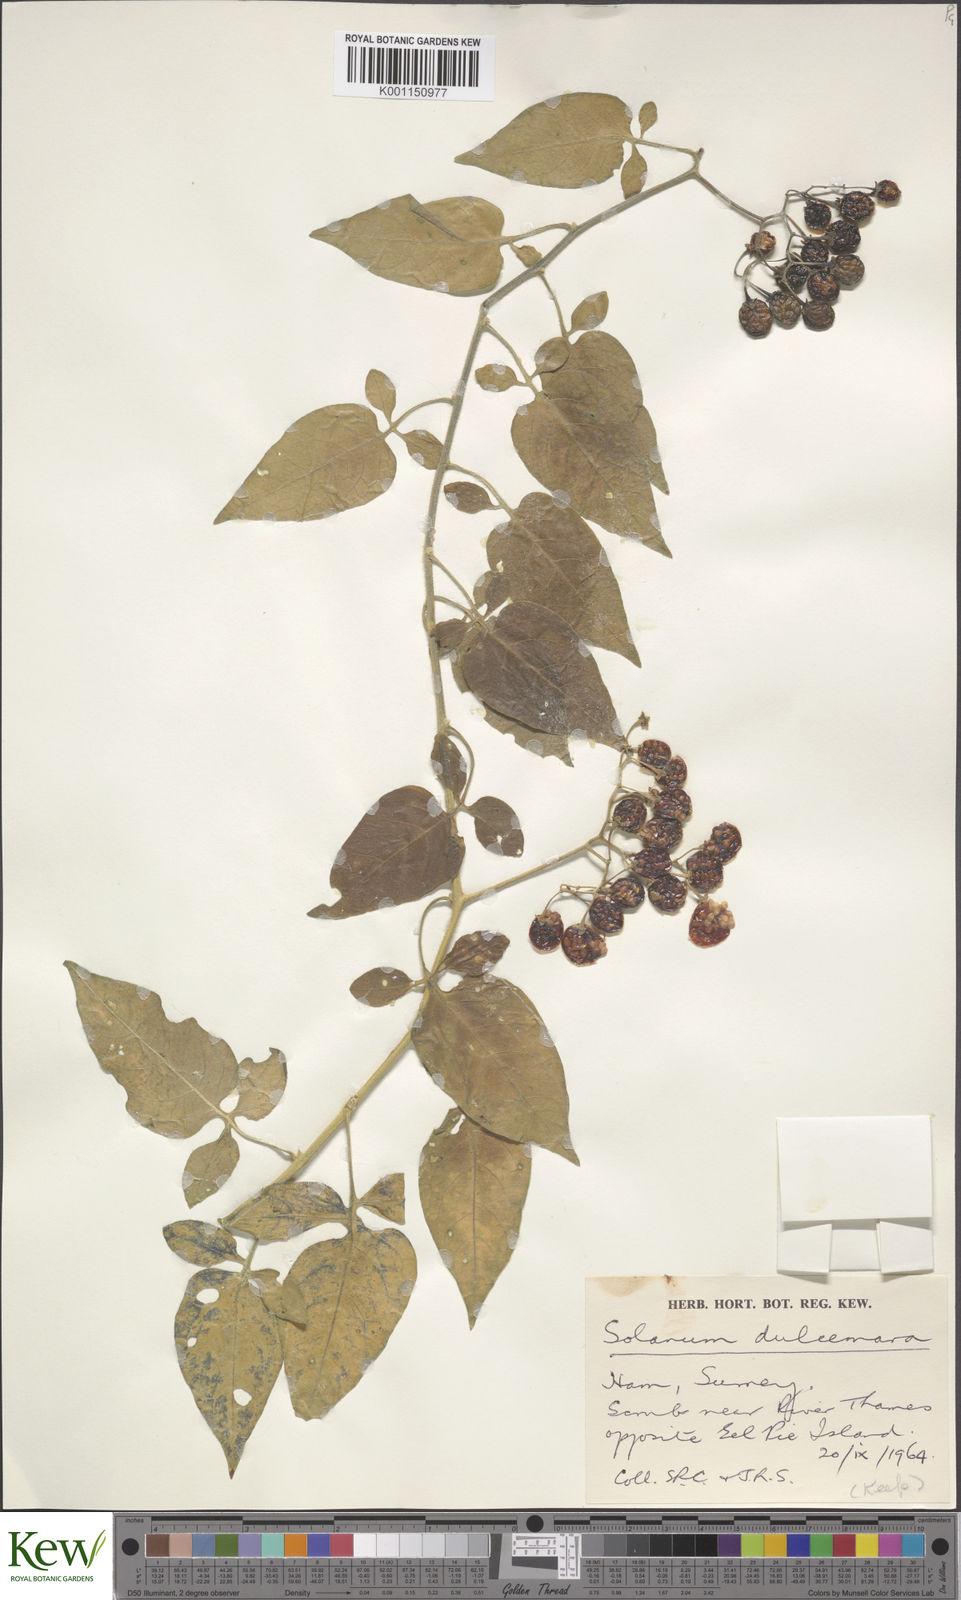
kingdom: Plantae
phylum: Tracheophyta
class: Magnoliopsida
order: Solanales
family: Solanaceae
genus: Solanum
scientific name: Solanum dulcamara
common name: Climbing nightshade
